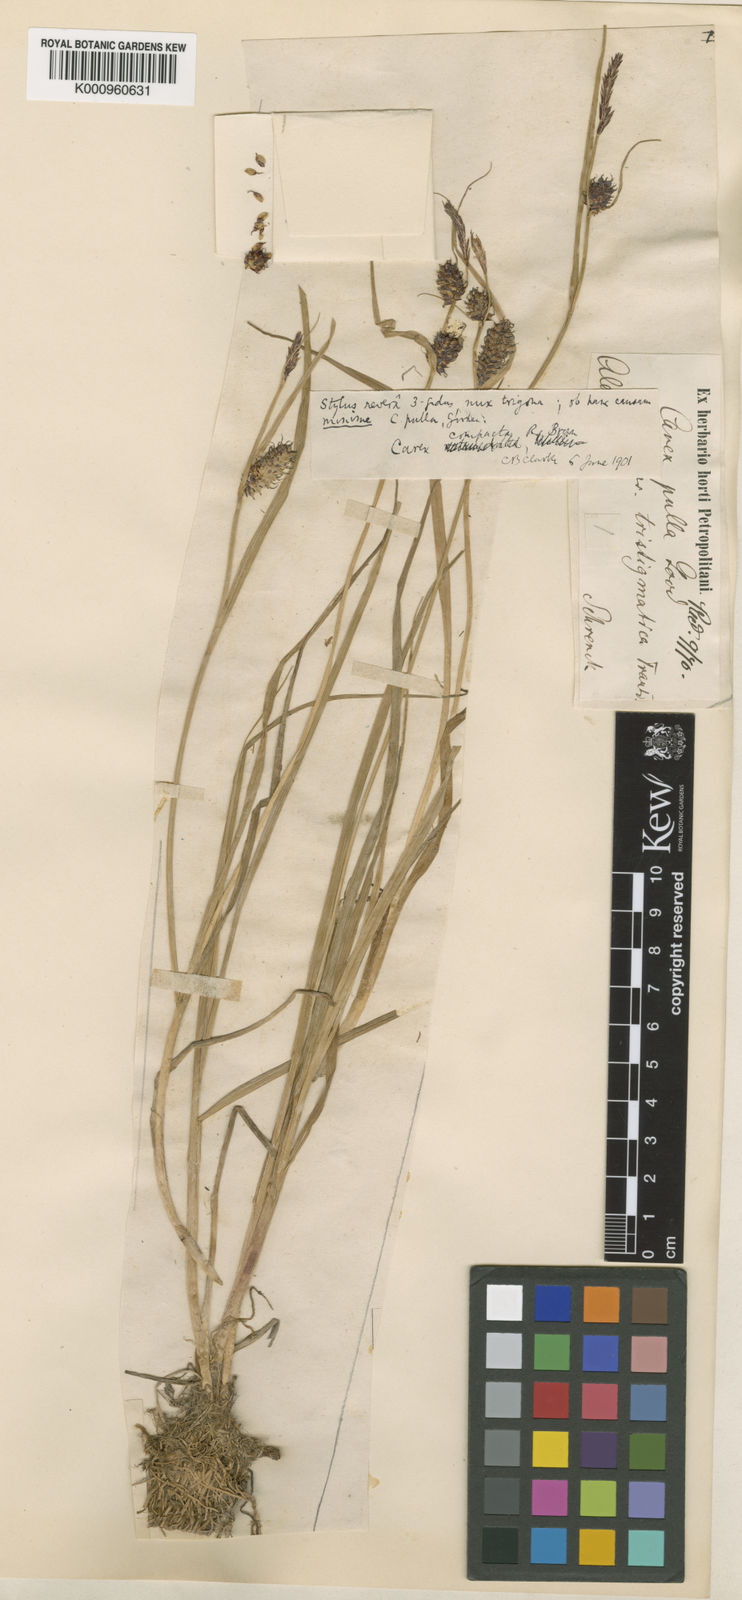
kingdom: Plantae
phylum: Tracheophyta
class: Liliopsida
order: Poales
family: Cyperaceae
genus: Carex
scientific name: Carex vesicaria
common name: Bladder-sedge
